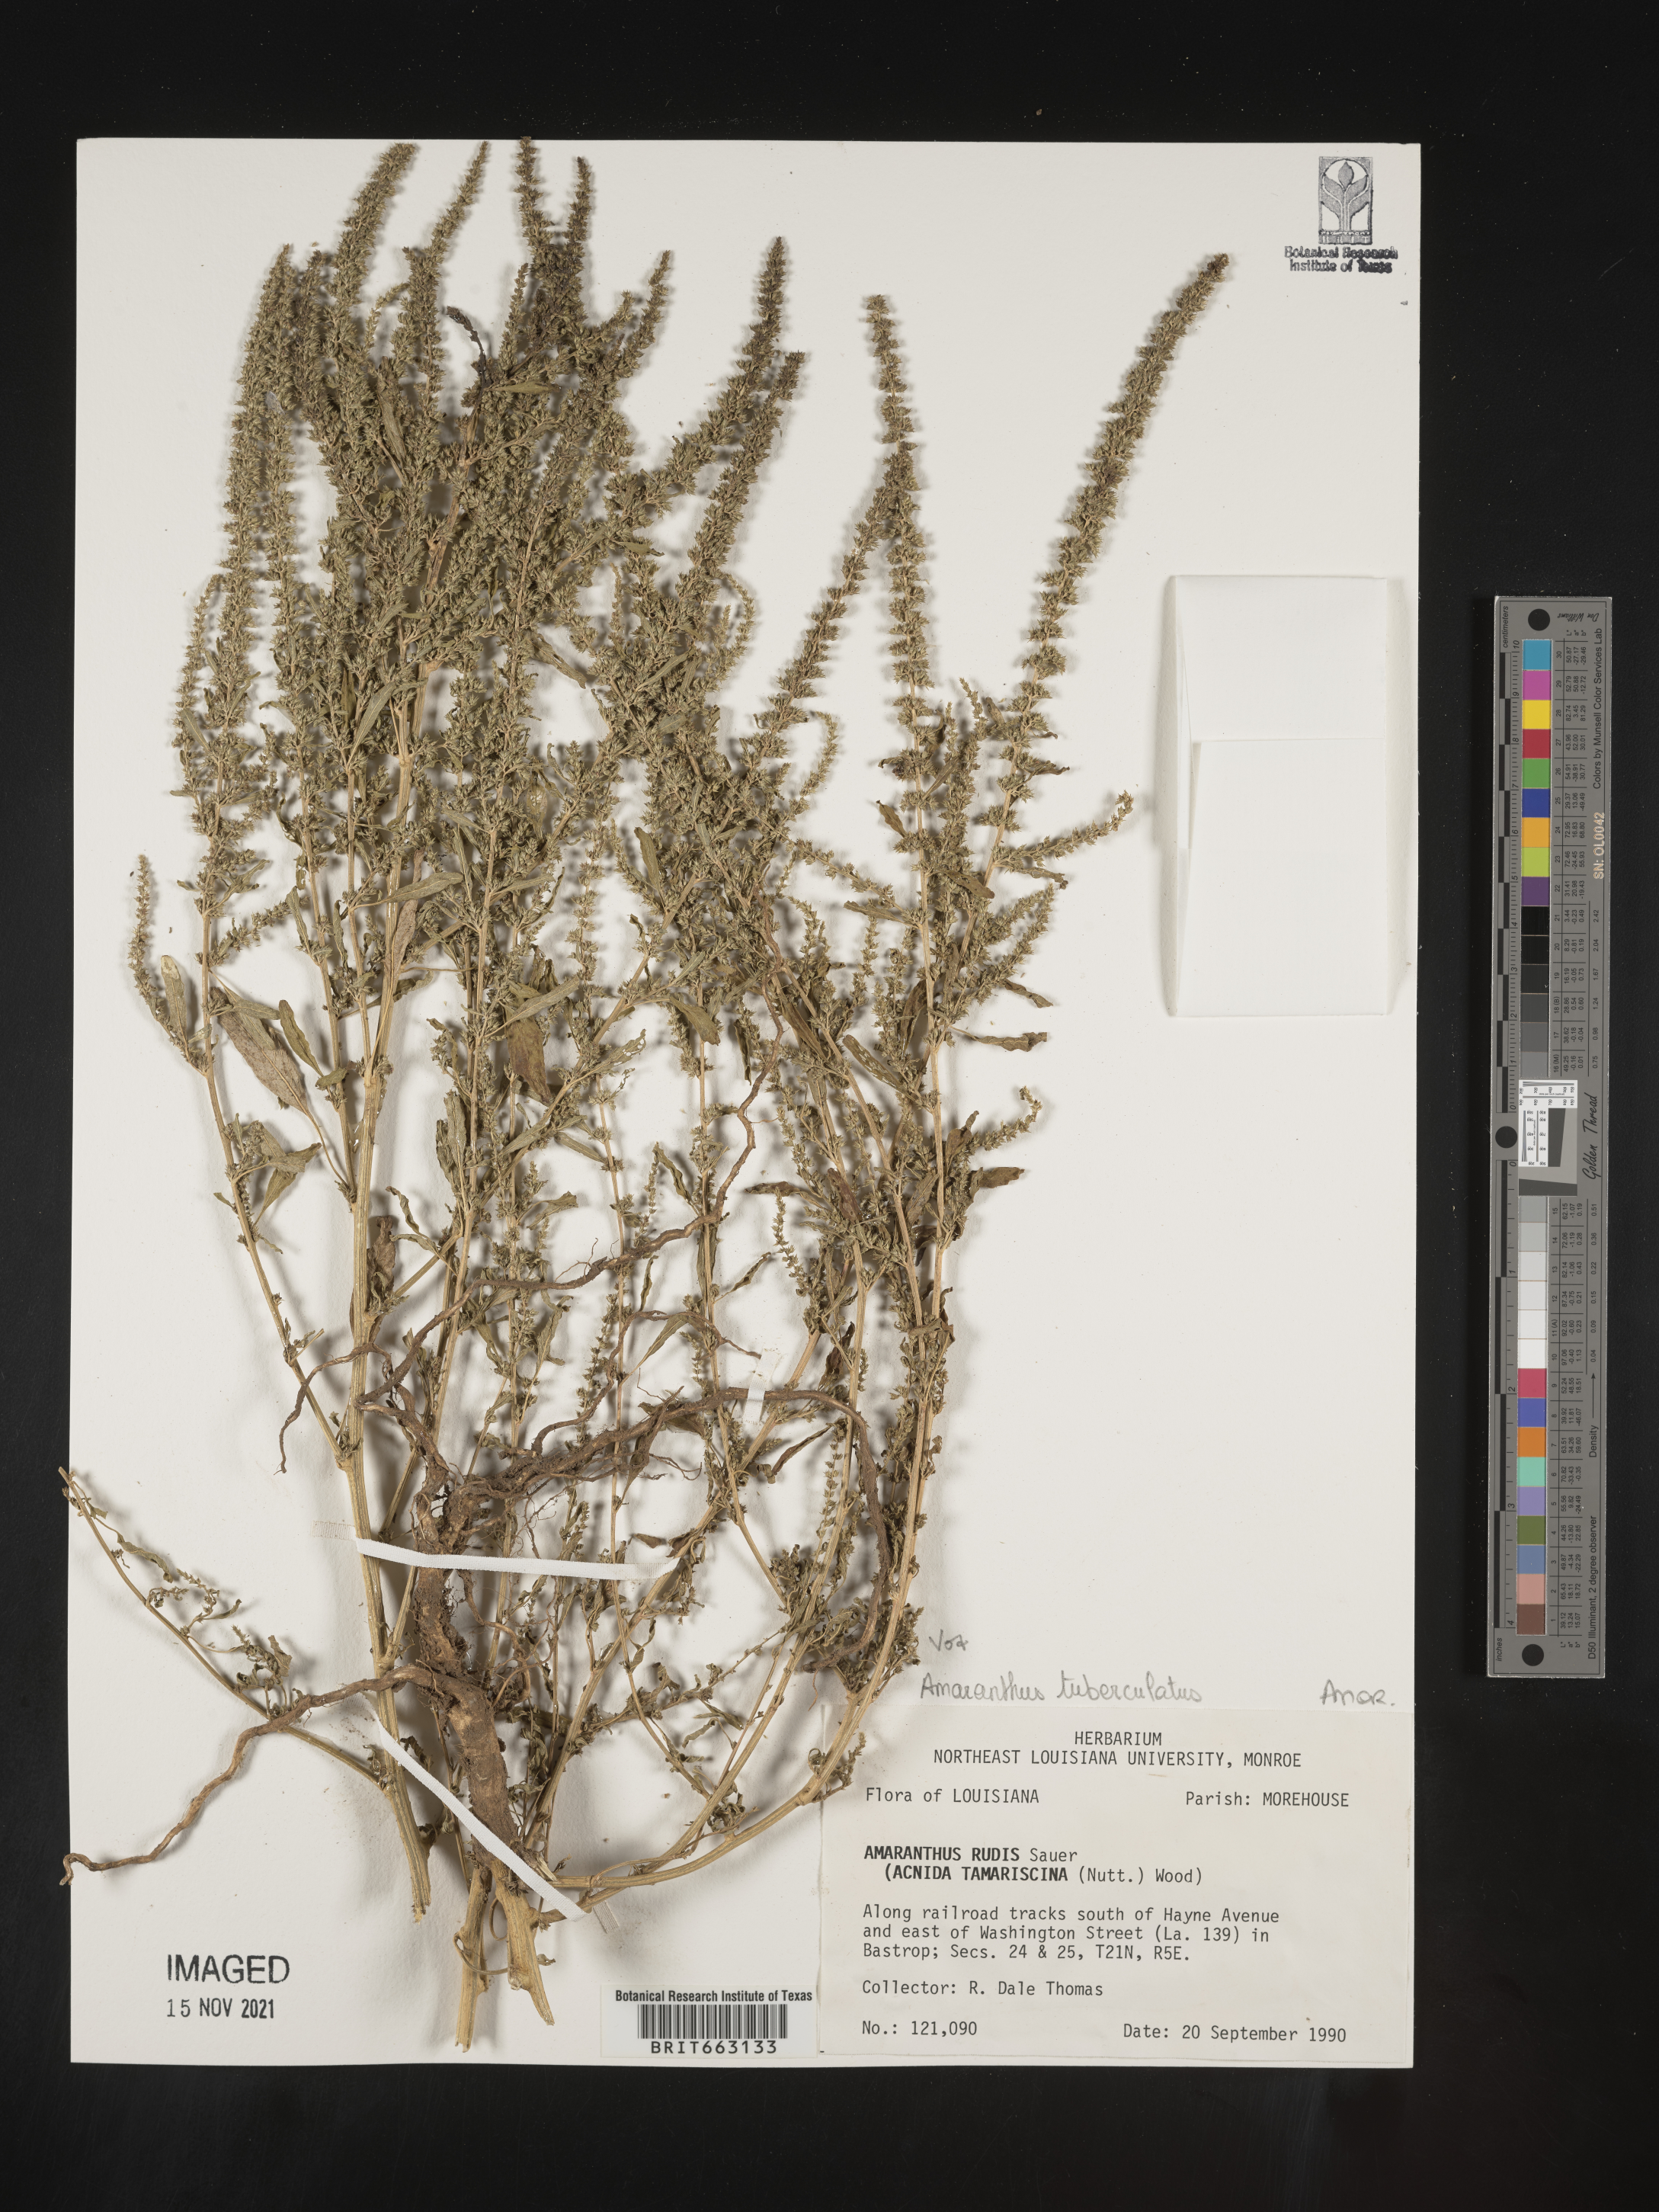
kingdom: Plantae
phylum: Tracheophyta
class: Magnoliopsida
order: Caryophyllales
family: Amaranthaceae
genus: Amaranthus
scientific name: Amaranthus tuberculatus
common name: Rough-fruit amaranth
